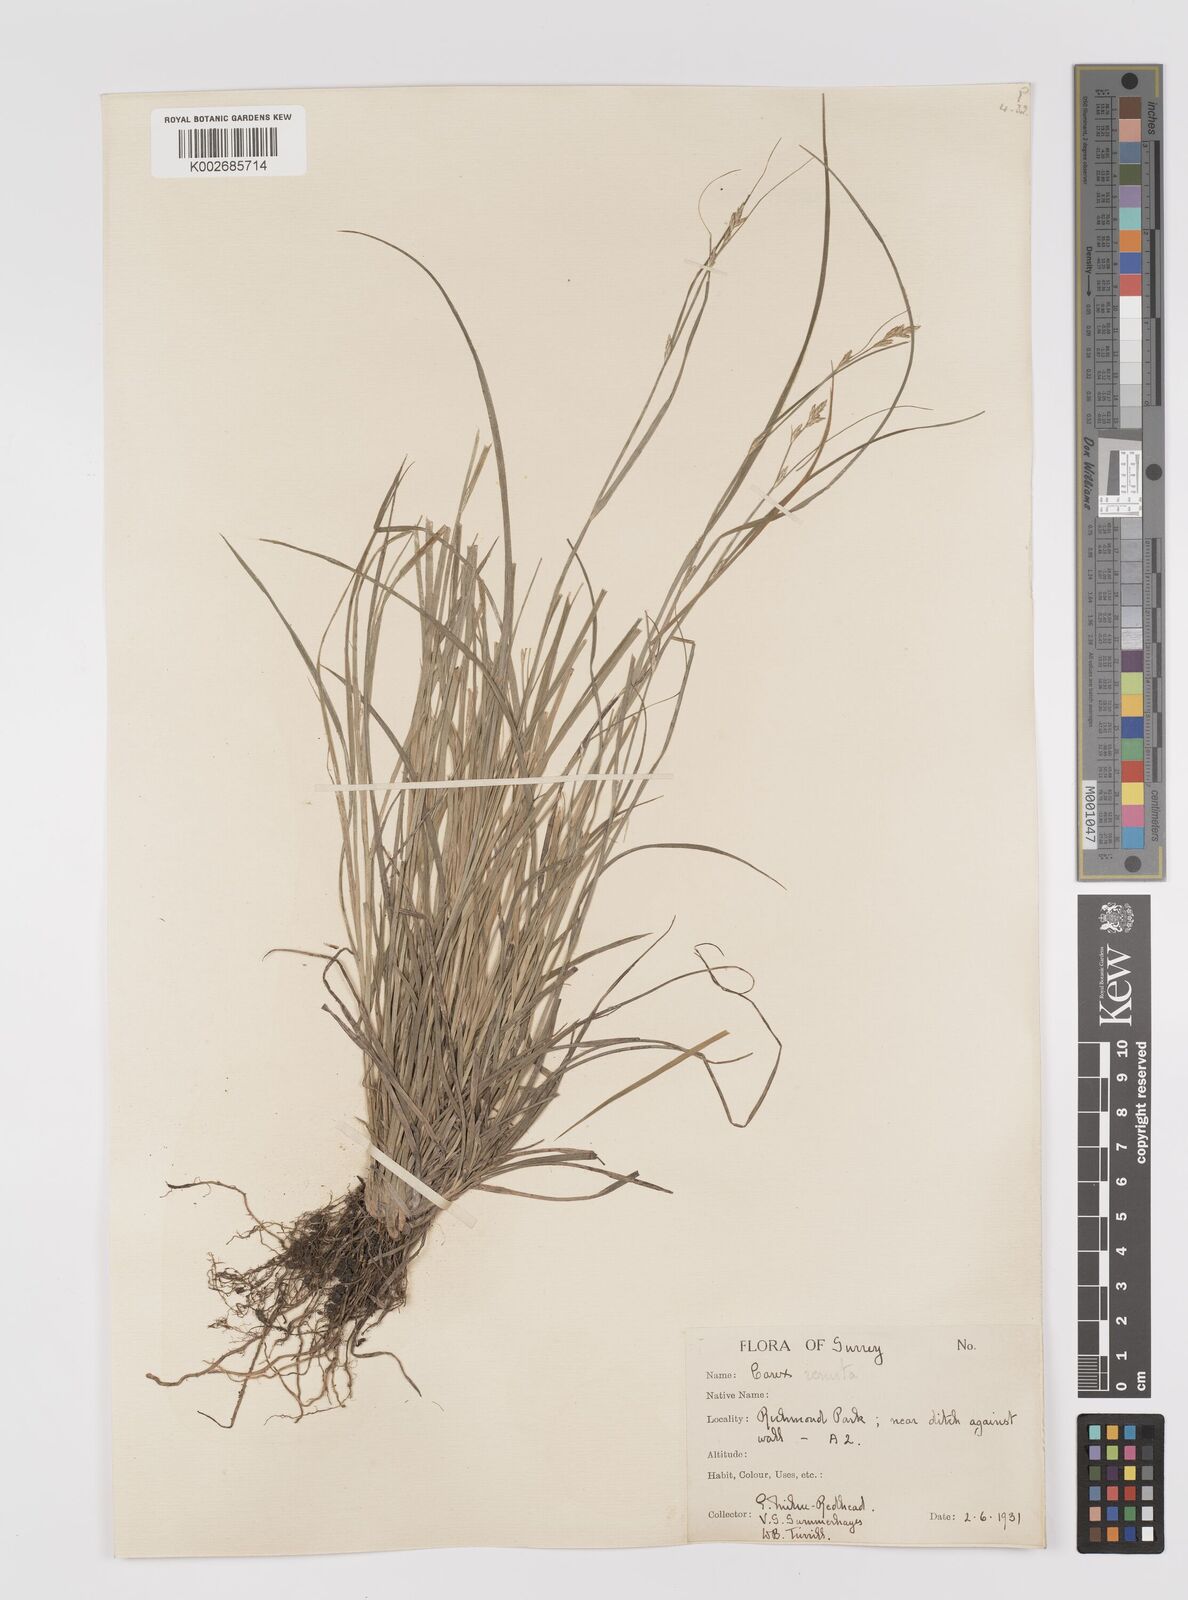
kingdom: Plantae
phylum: Tracheophyta
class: Liliopsida
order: Poales
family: Cyperaceae
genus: Carex
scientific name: Carex remota
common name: Remote sedge
